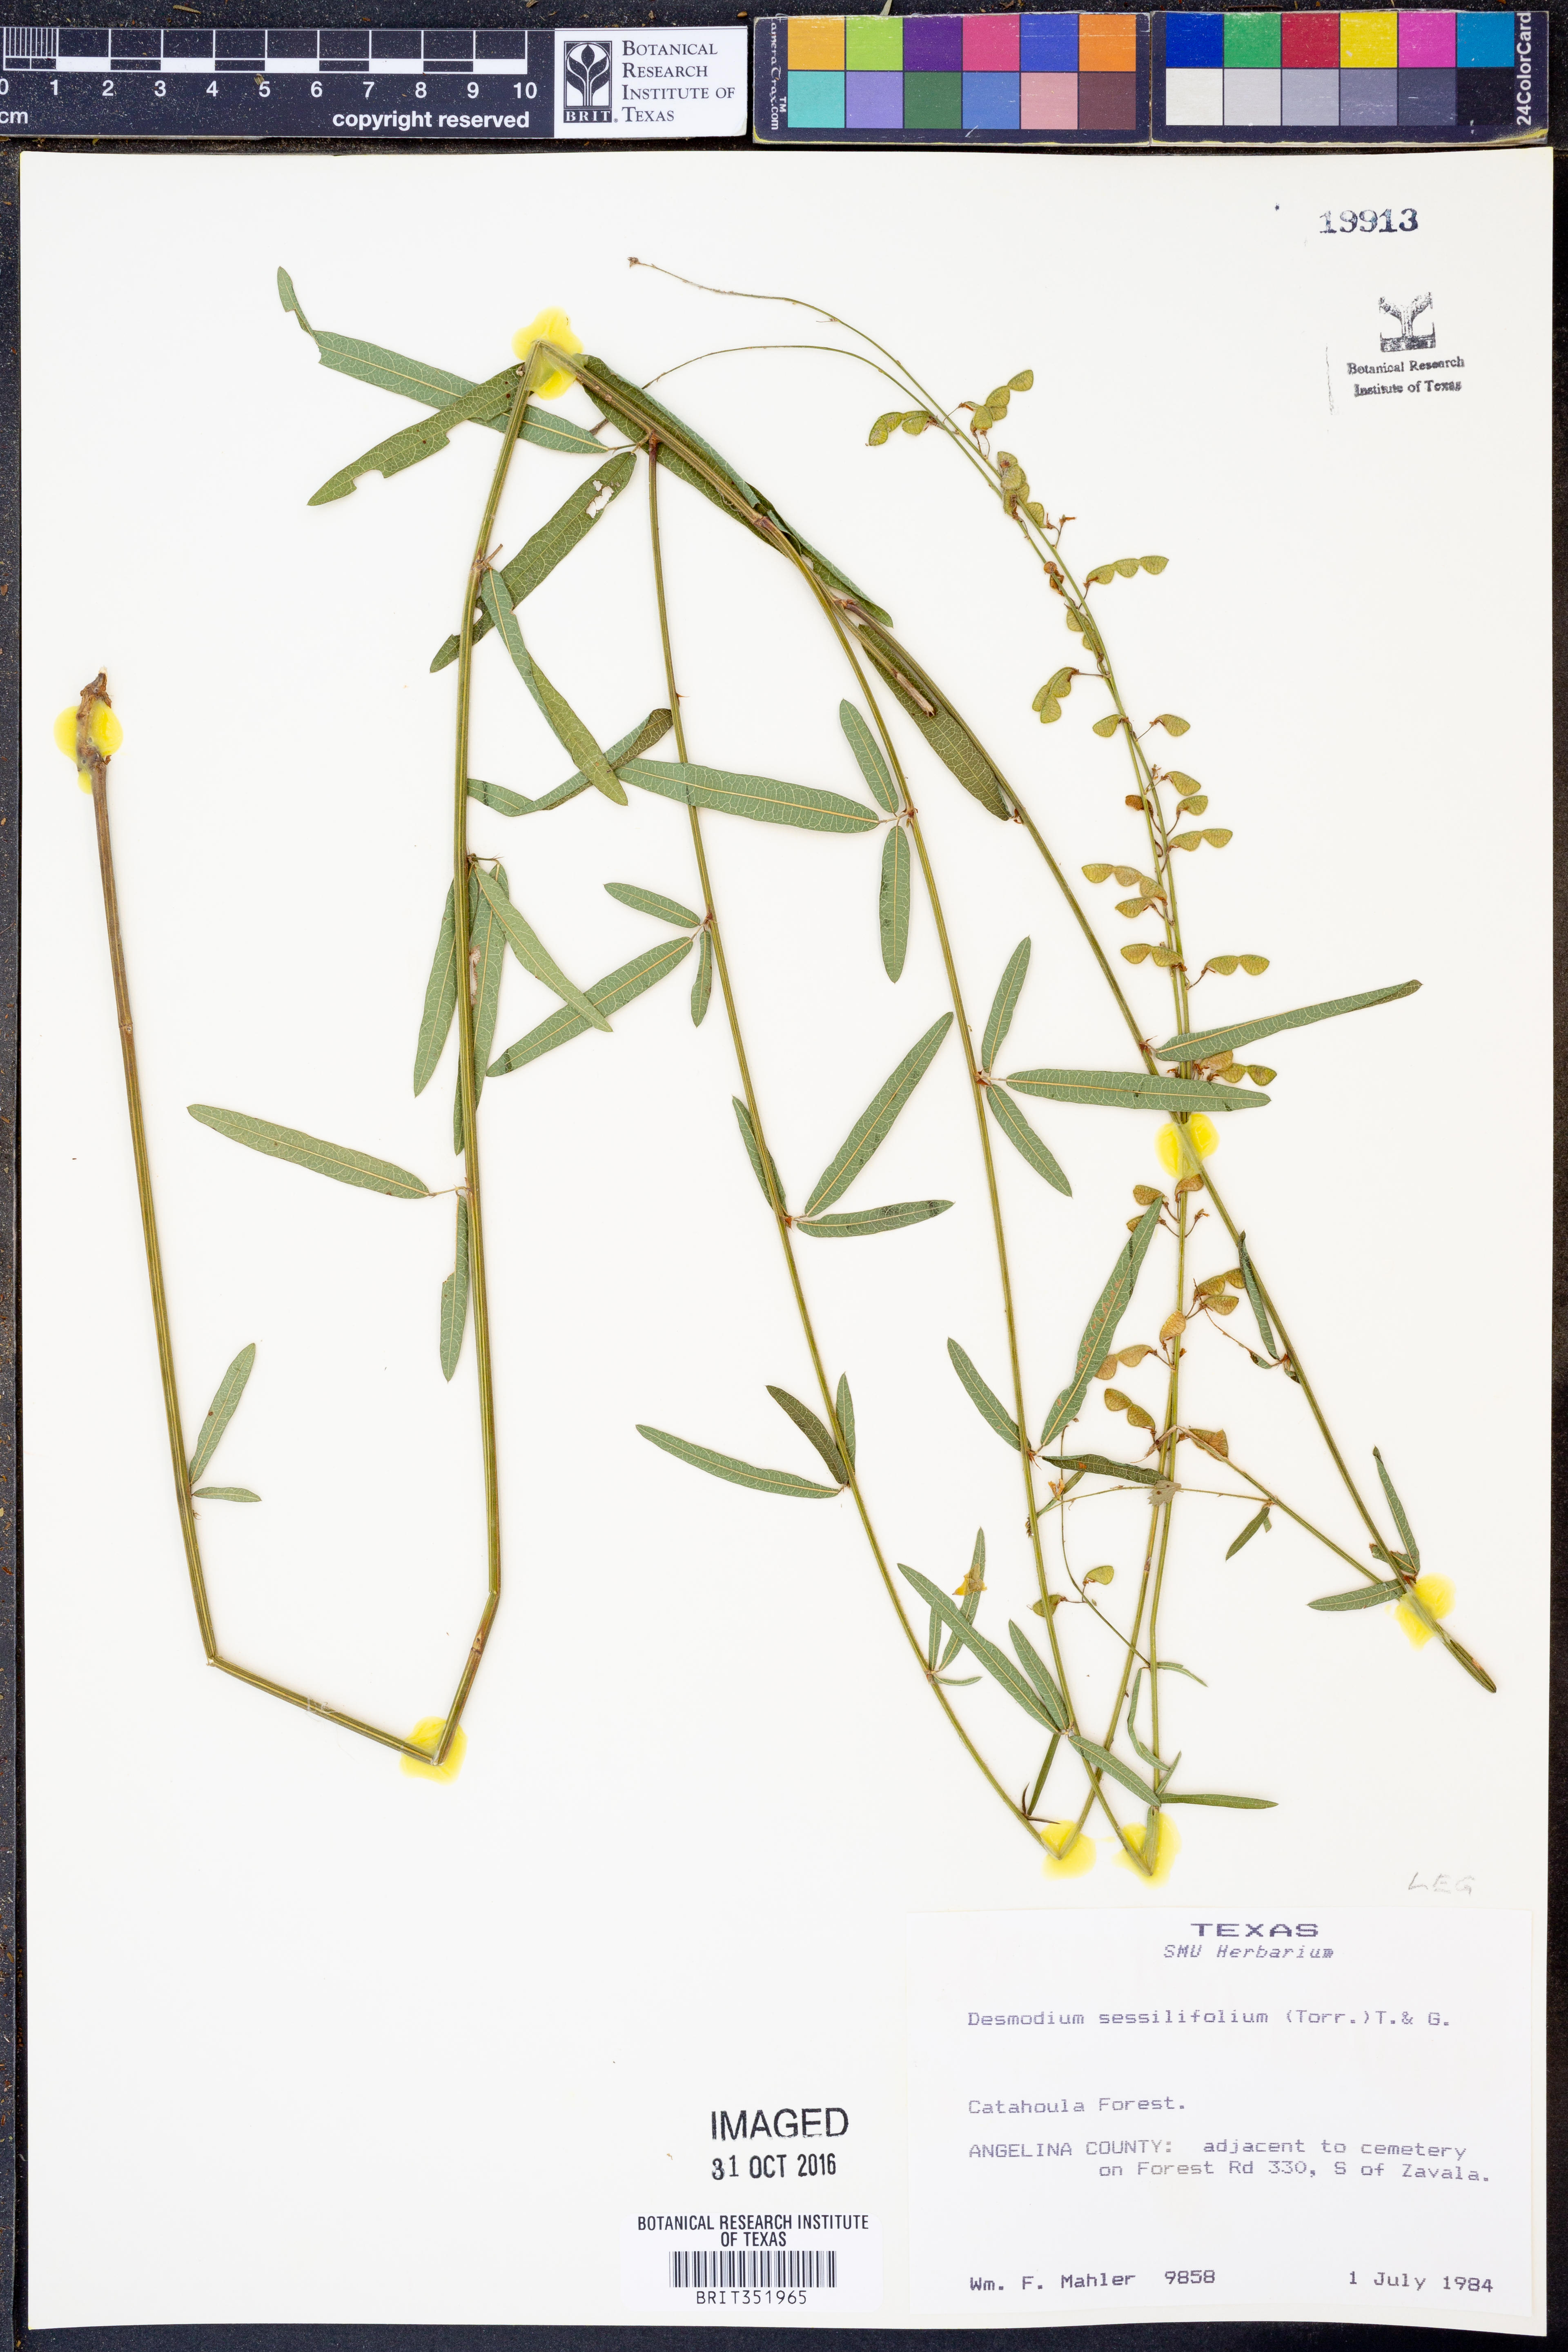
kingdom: Plantae
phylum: Tracheophyta
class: Magnoliopsida
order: Fabales
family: Fabaceae
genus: Desmodium
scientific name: Desmodium sessilifolium
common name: Sessile tick-clover
